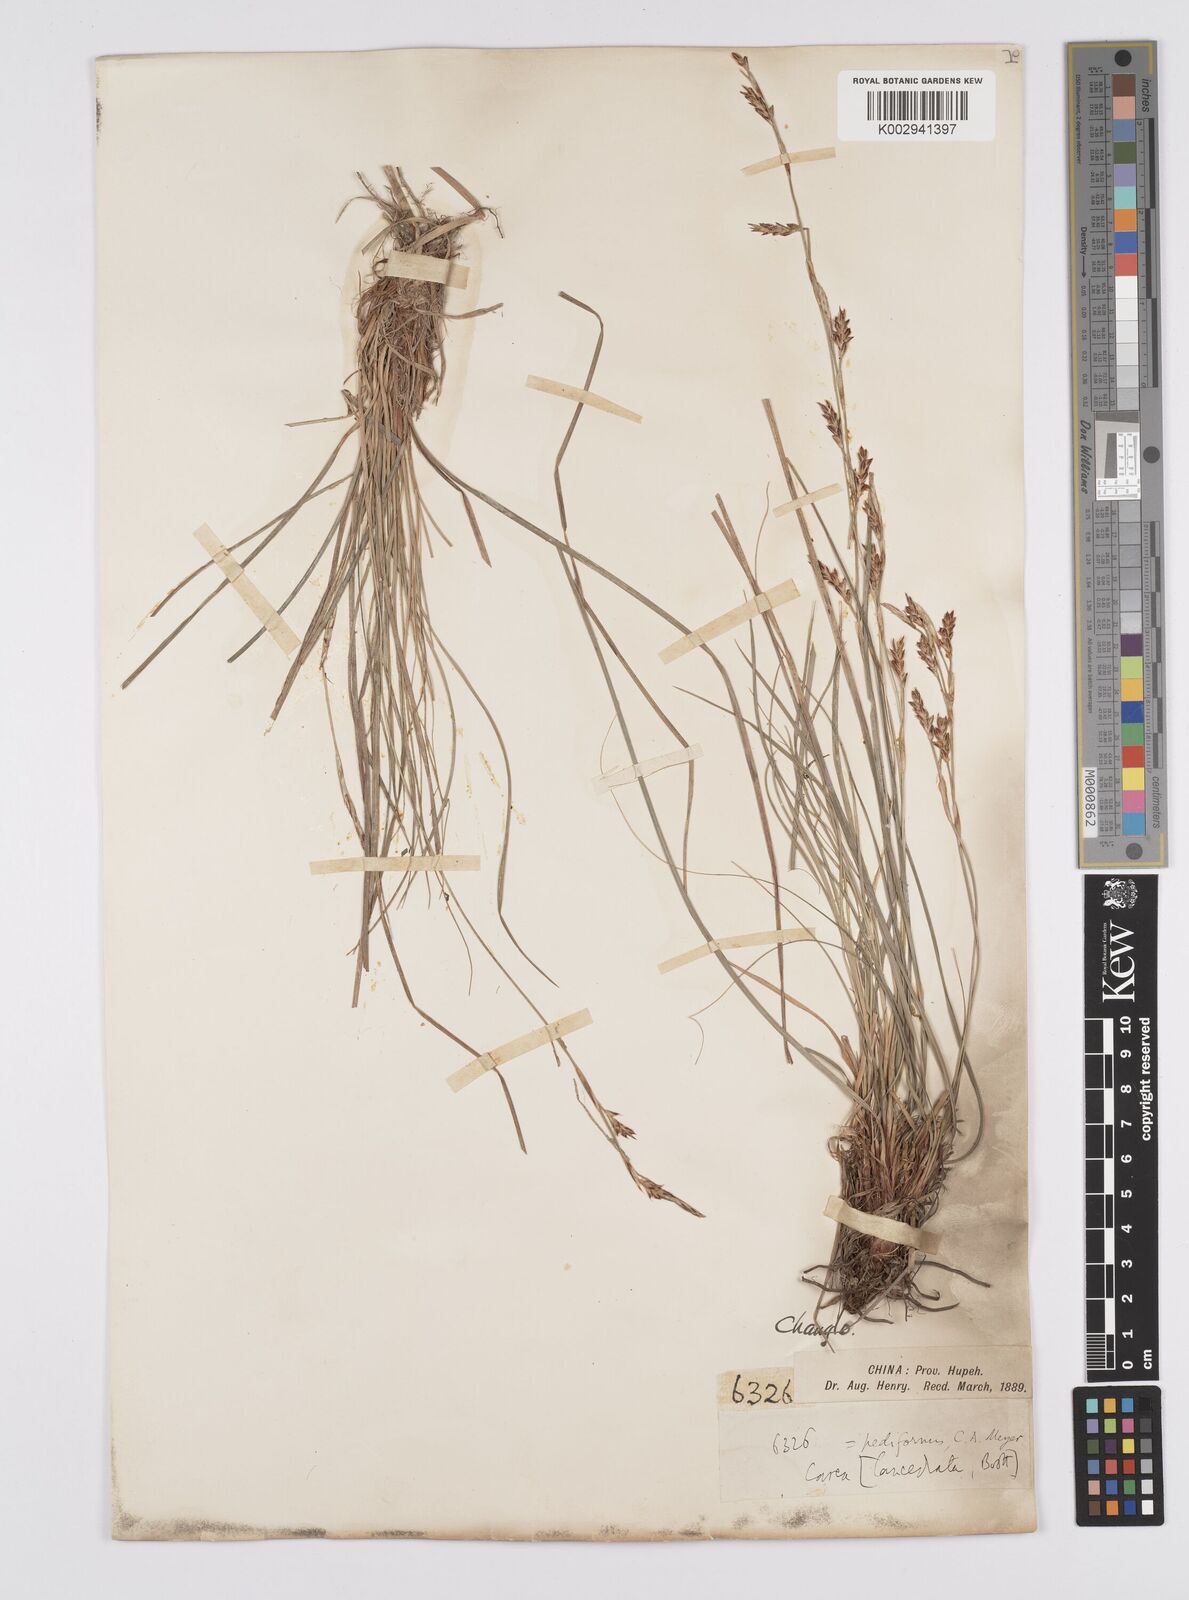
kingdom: Plantae
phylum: Tracheophyta
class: Liliopsida
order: Poales
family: Cyperaceae
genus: Carex
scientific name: Carex pediformis
